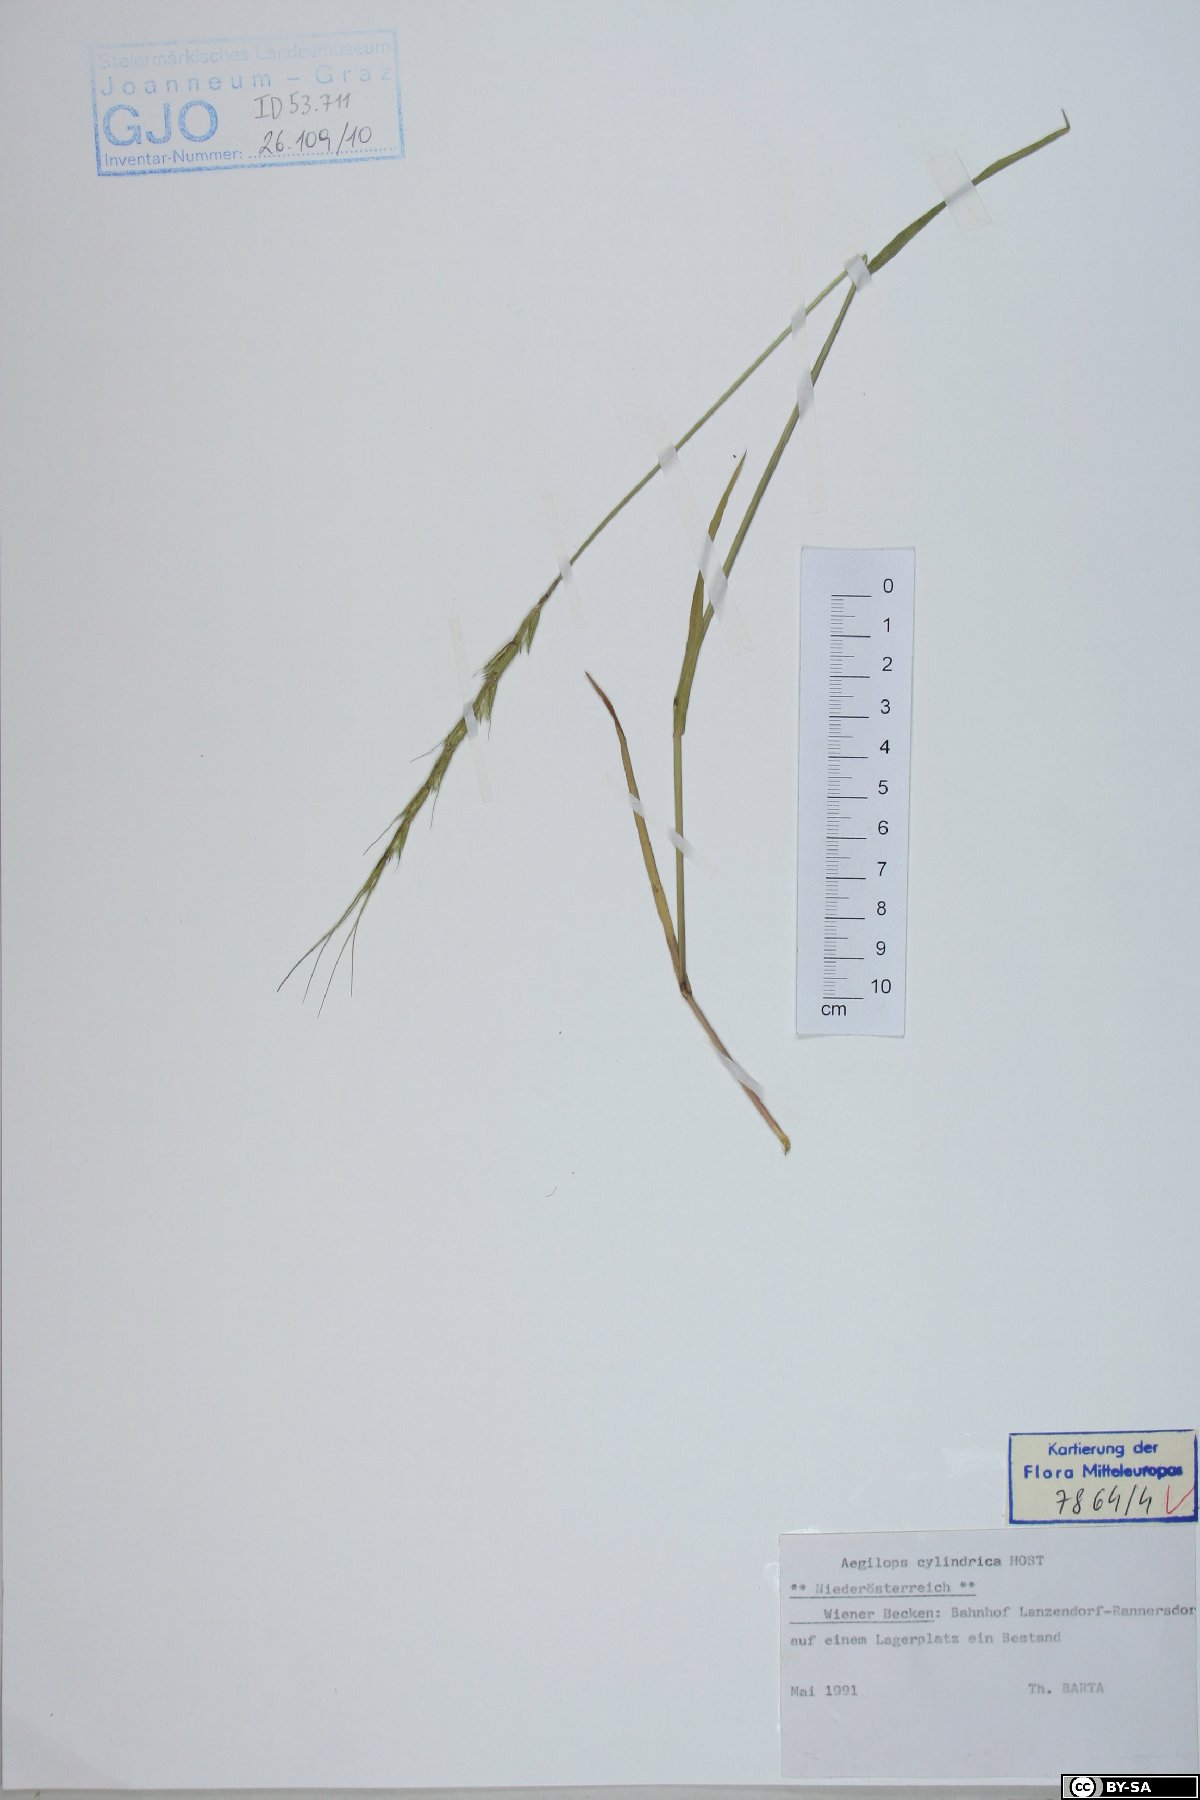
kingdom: Plantae
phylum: Tracheophyta
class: Liliopsida
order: Poales
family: Poaceae
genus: Aegilops
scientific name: Aegilops cylindrica
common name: Jointed goatgrass
